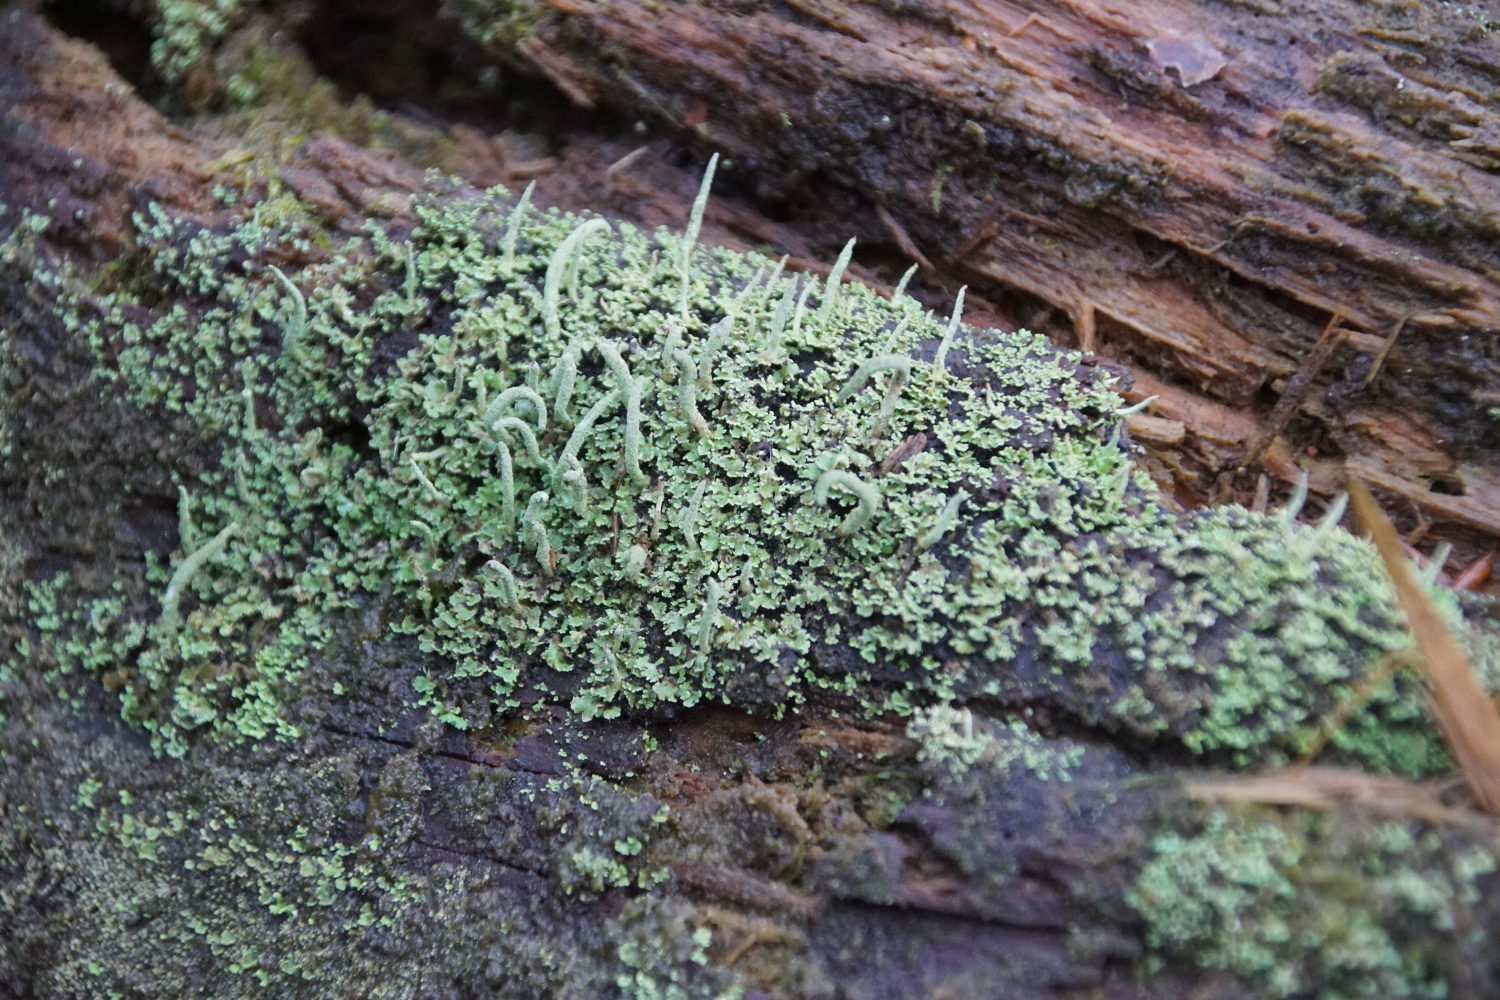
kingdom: Fungi
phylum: Ascomycota
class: Lecanoromycetes
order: Lecanorales
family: Cladoniaceae
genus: Cladonia
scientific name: Cladonia coniocraea
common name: træfods-bægerlav
